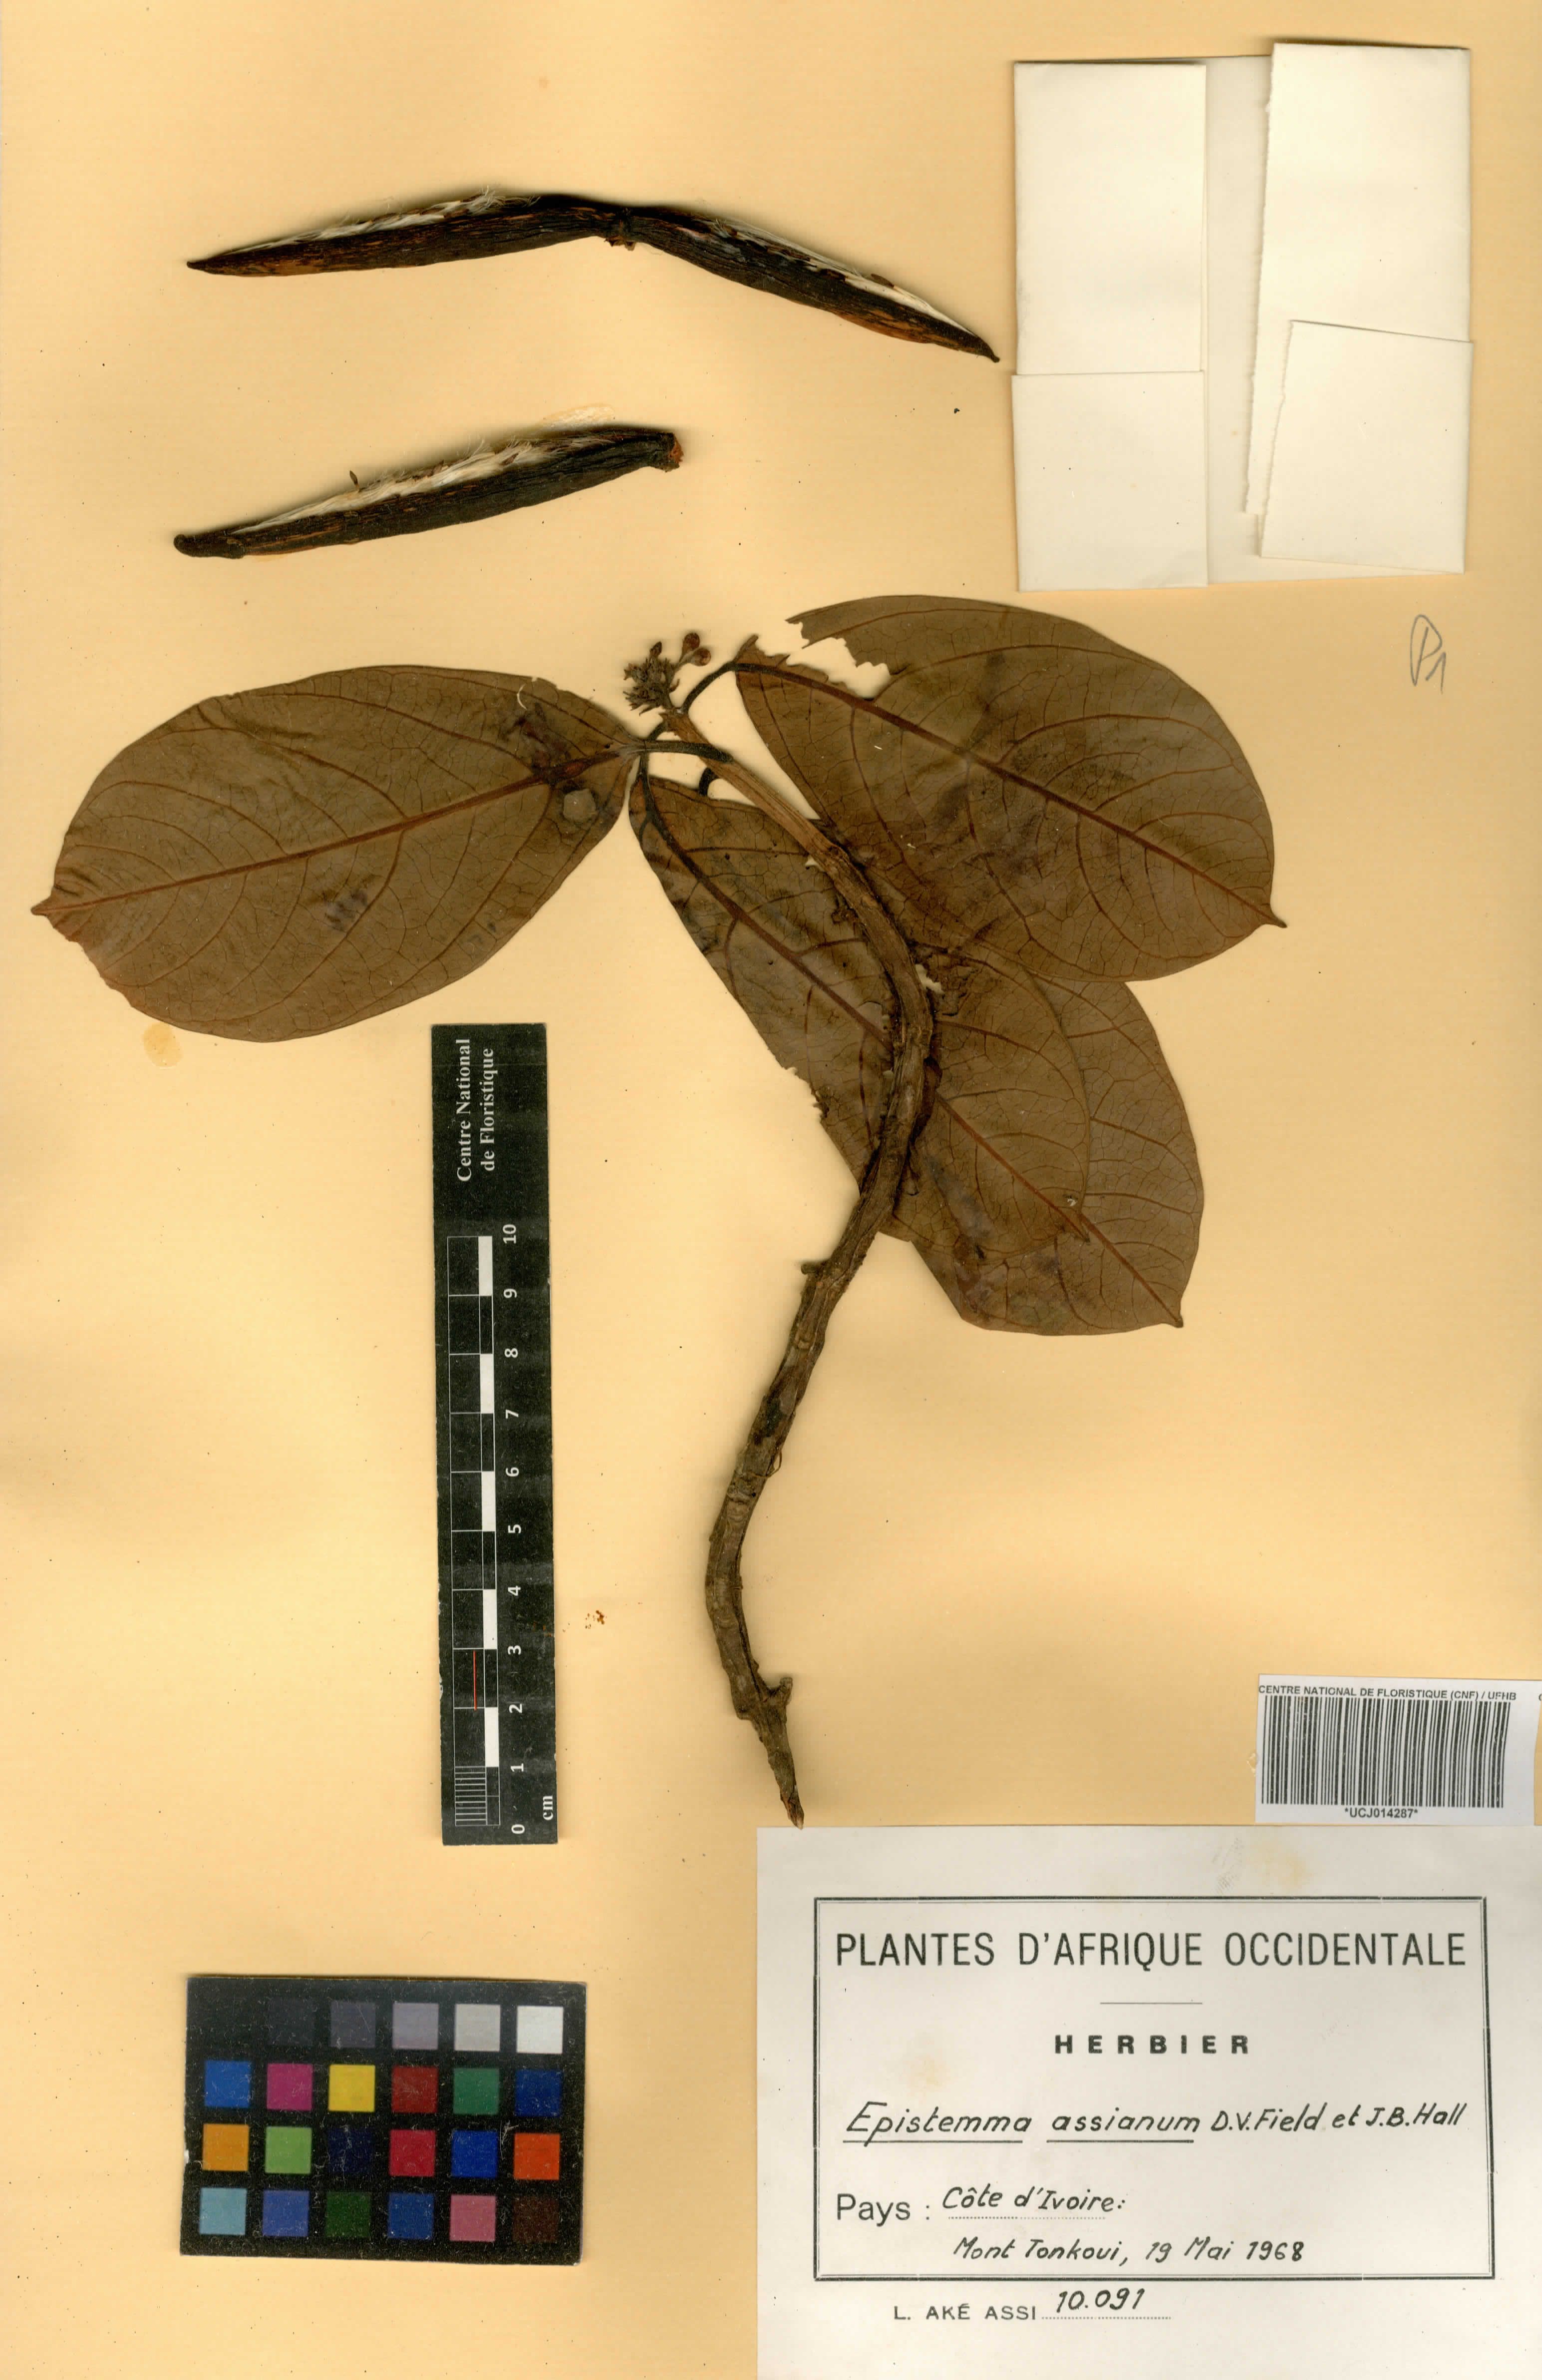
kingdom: Plantae
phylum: Tracheophyta
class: Magnoliopsida
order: Gentianales
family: Apocynaceae
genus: Epistemma
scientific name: Epistemma assianum
